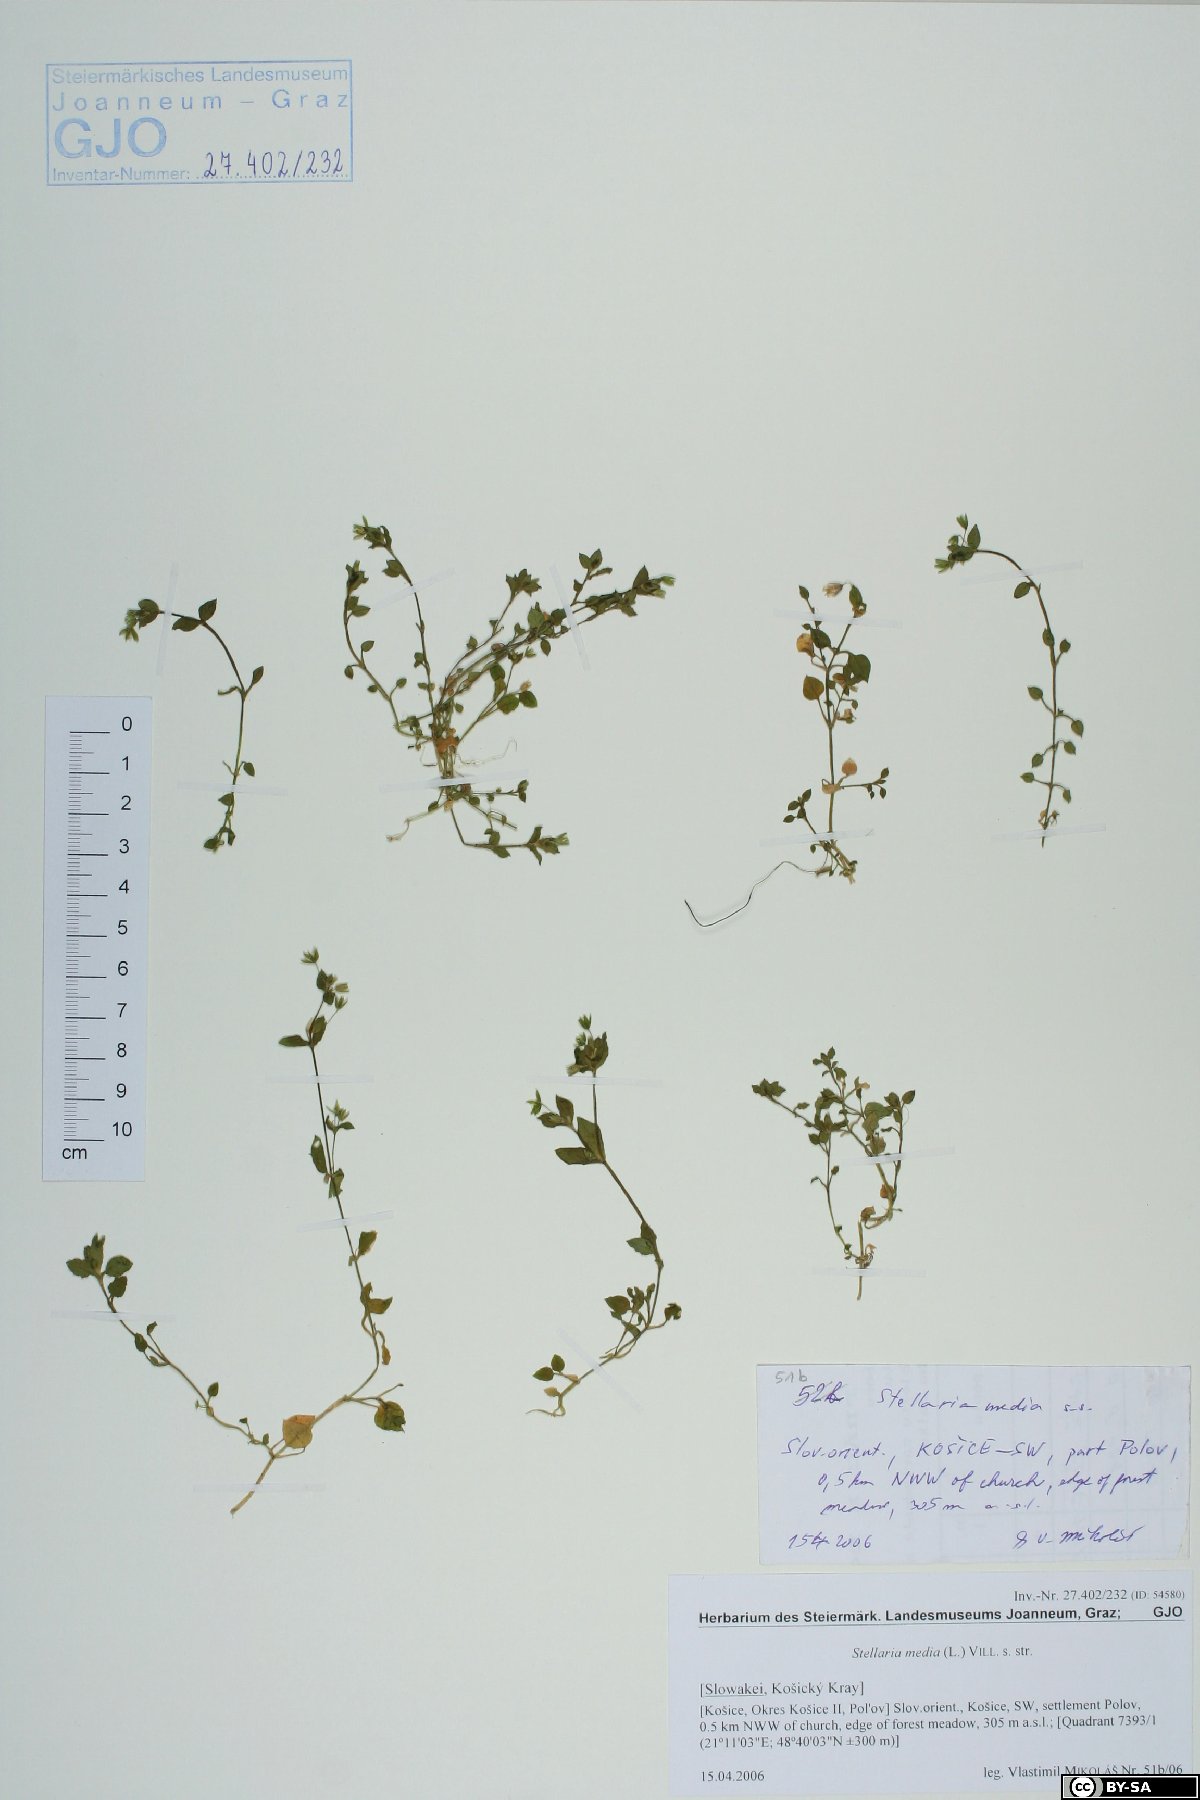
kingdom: Plantae
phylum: Tracheophyta
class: Magnoliopsida
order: Caryophyllales
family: Caryophyllaceae
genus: Stellaria
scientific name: Stellaria media
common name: Common chickweed
